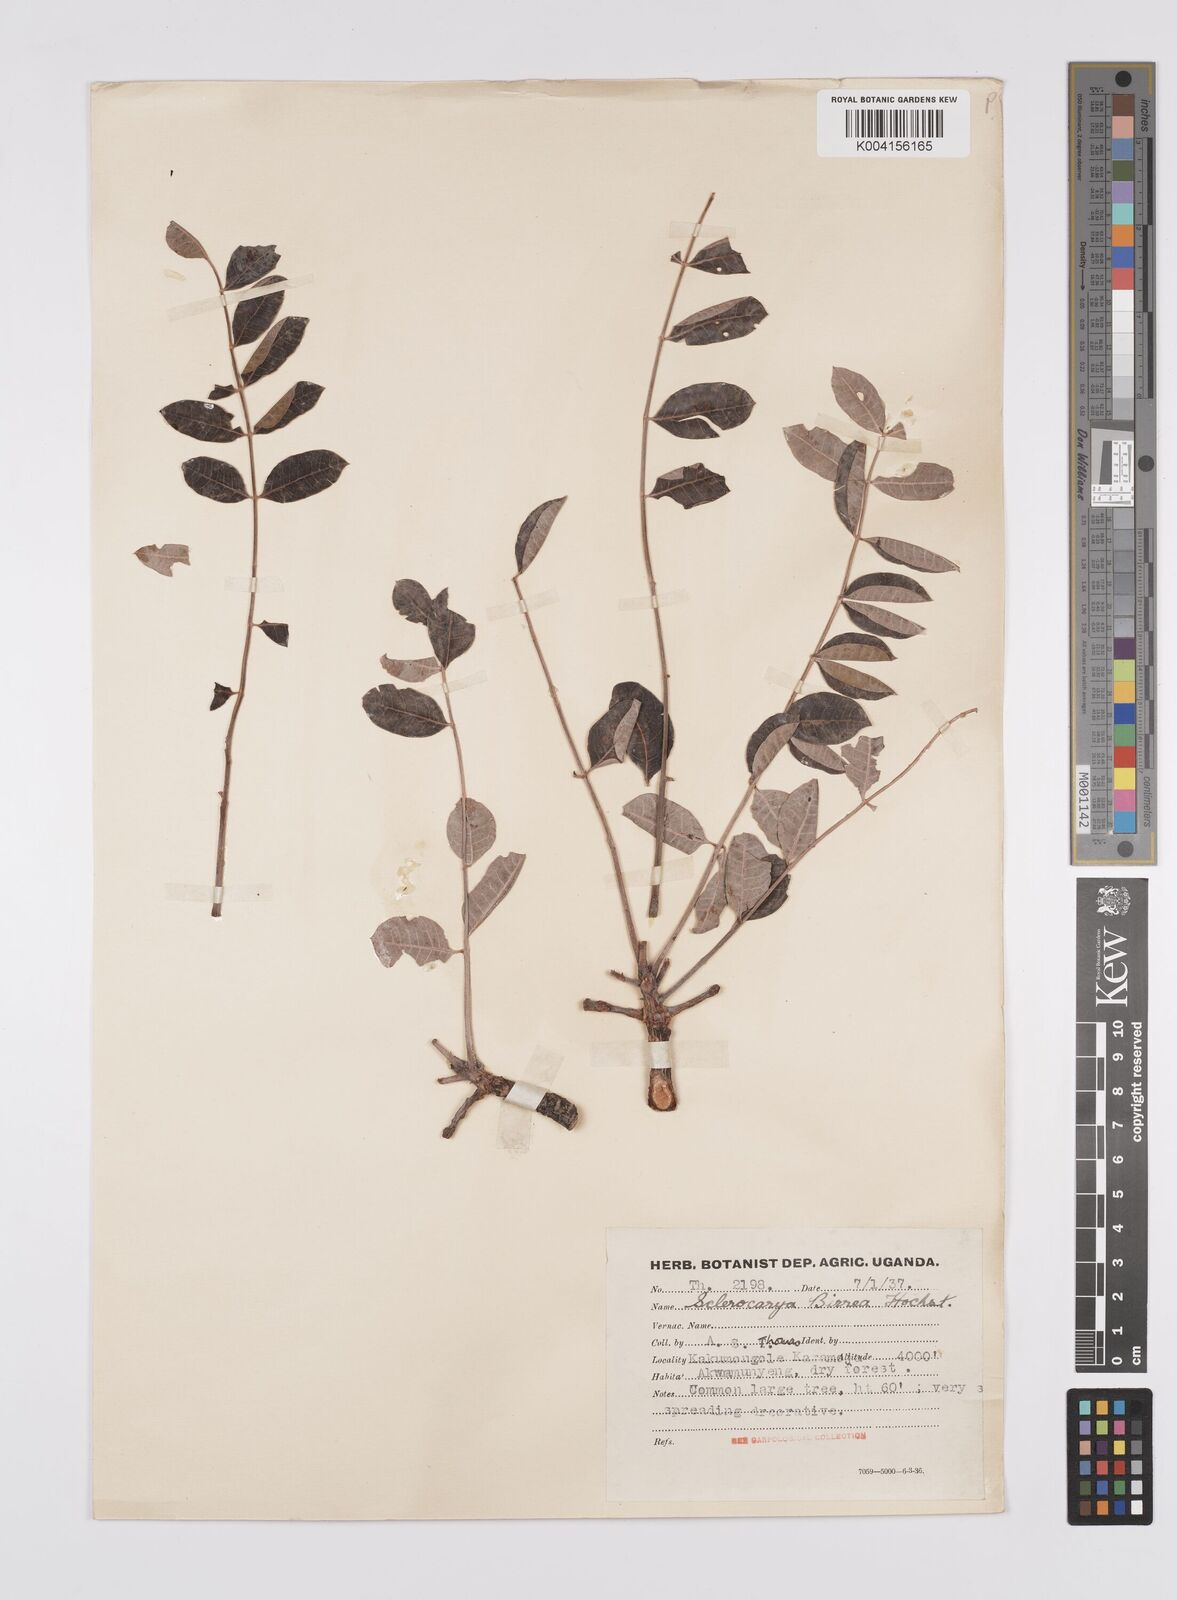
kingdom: Plantae
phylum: Tracheophyta
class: Magnoliopsida
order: Sapindales
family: Anacardiaceae
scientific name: Anacardiaceae
